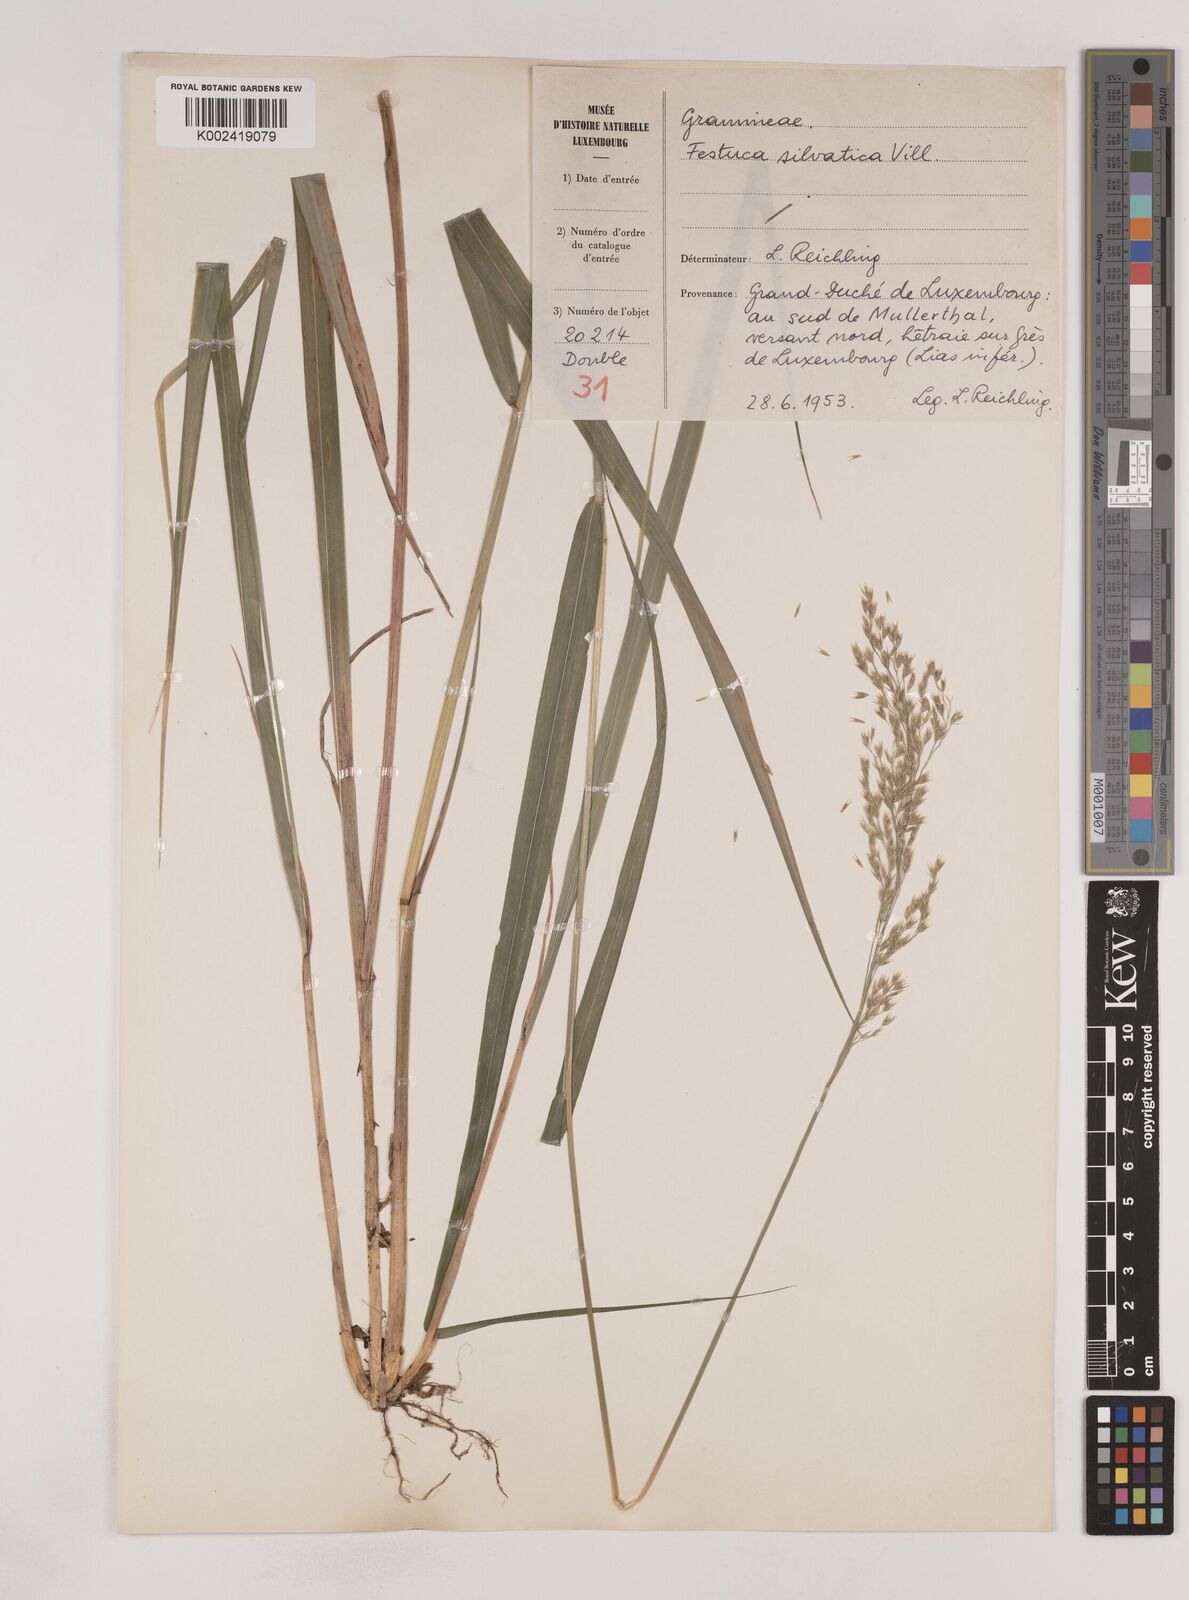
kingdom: Plantae
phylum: Tracheophyta
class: Liliopsida
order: Poales
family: Poaceae
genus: Festuca
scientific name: Festuca drymeja
